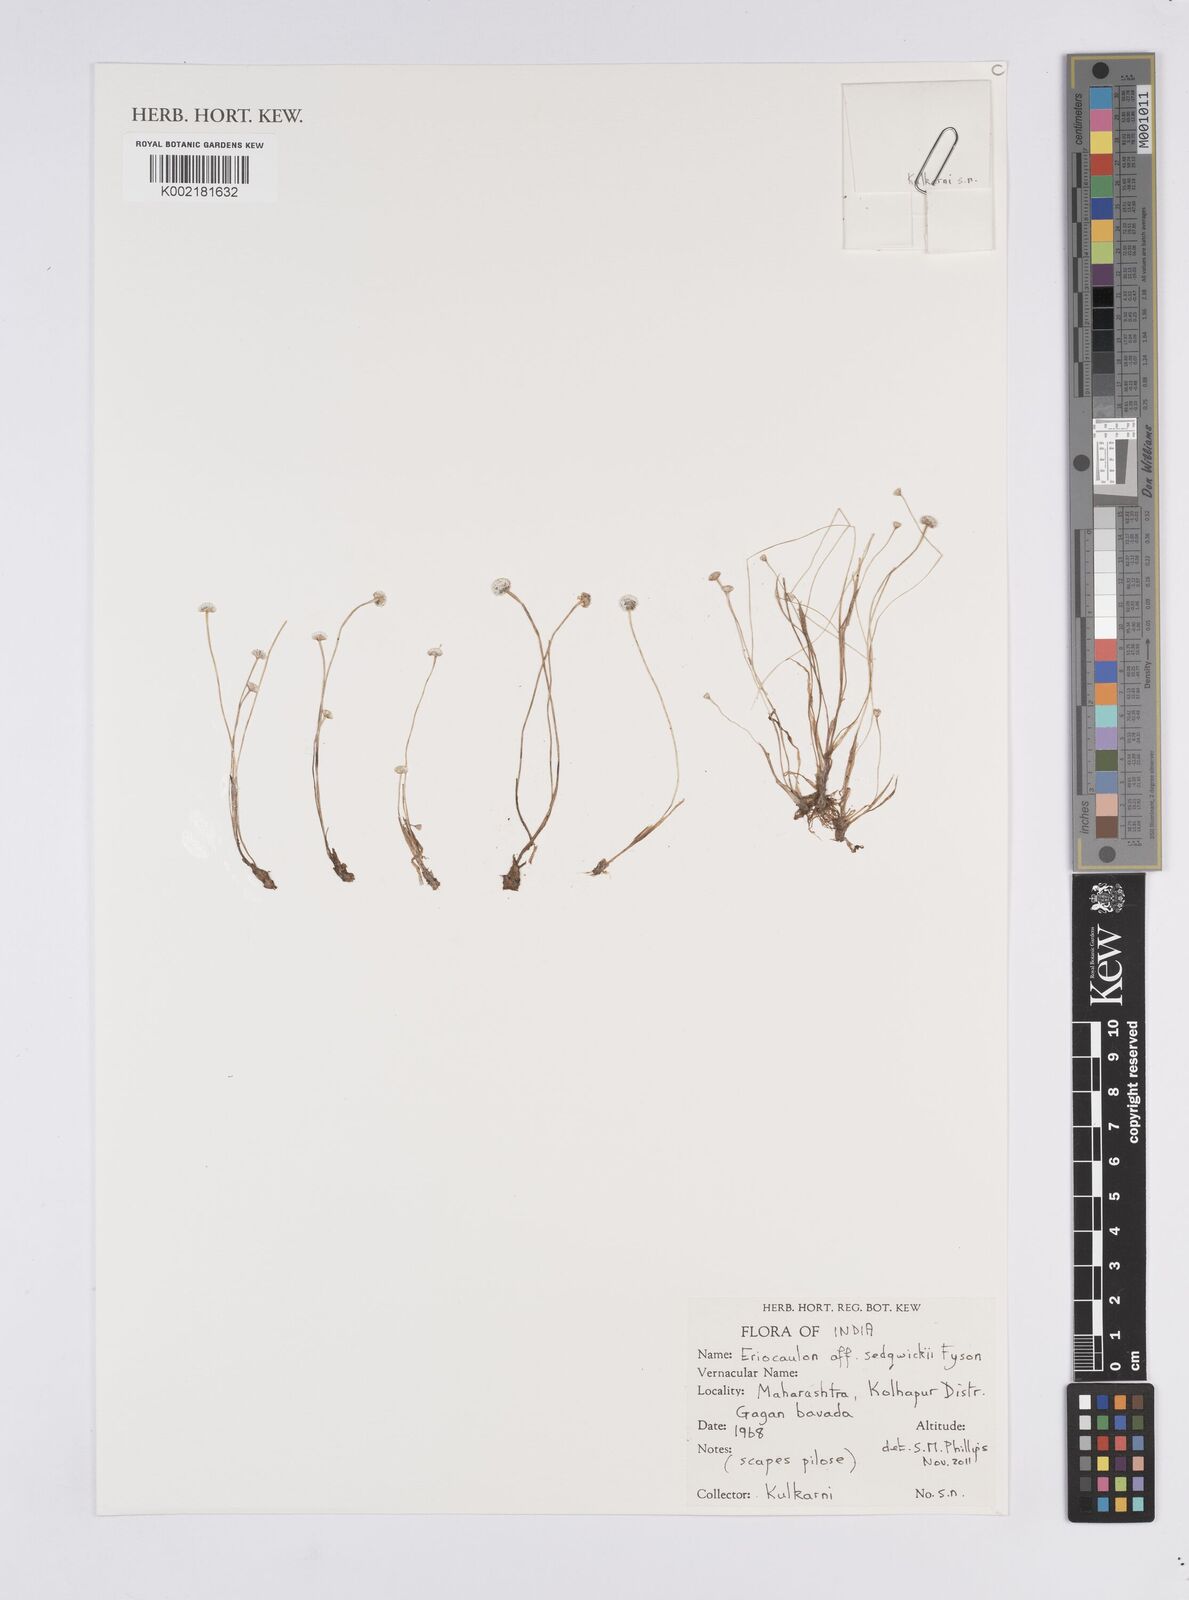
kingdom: Plantae
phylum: Tracheophyta
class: Liliopsida
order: Poales
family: Eriocaulaceae
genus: Eriocaulon
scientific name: Eriocaulon sedgwickii
